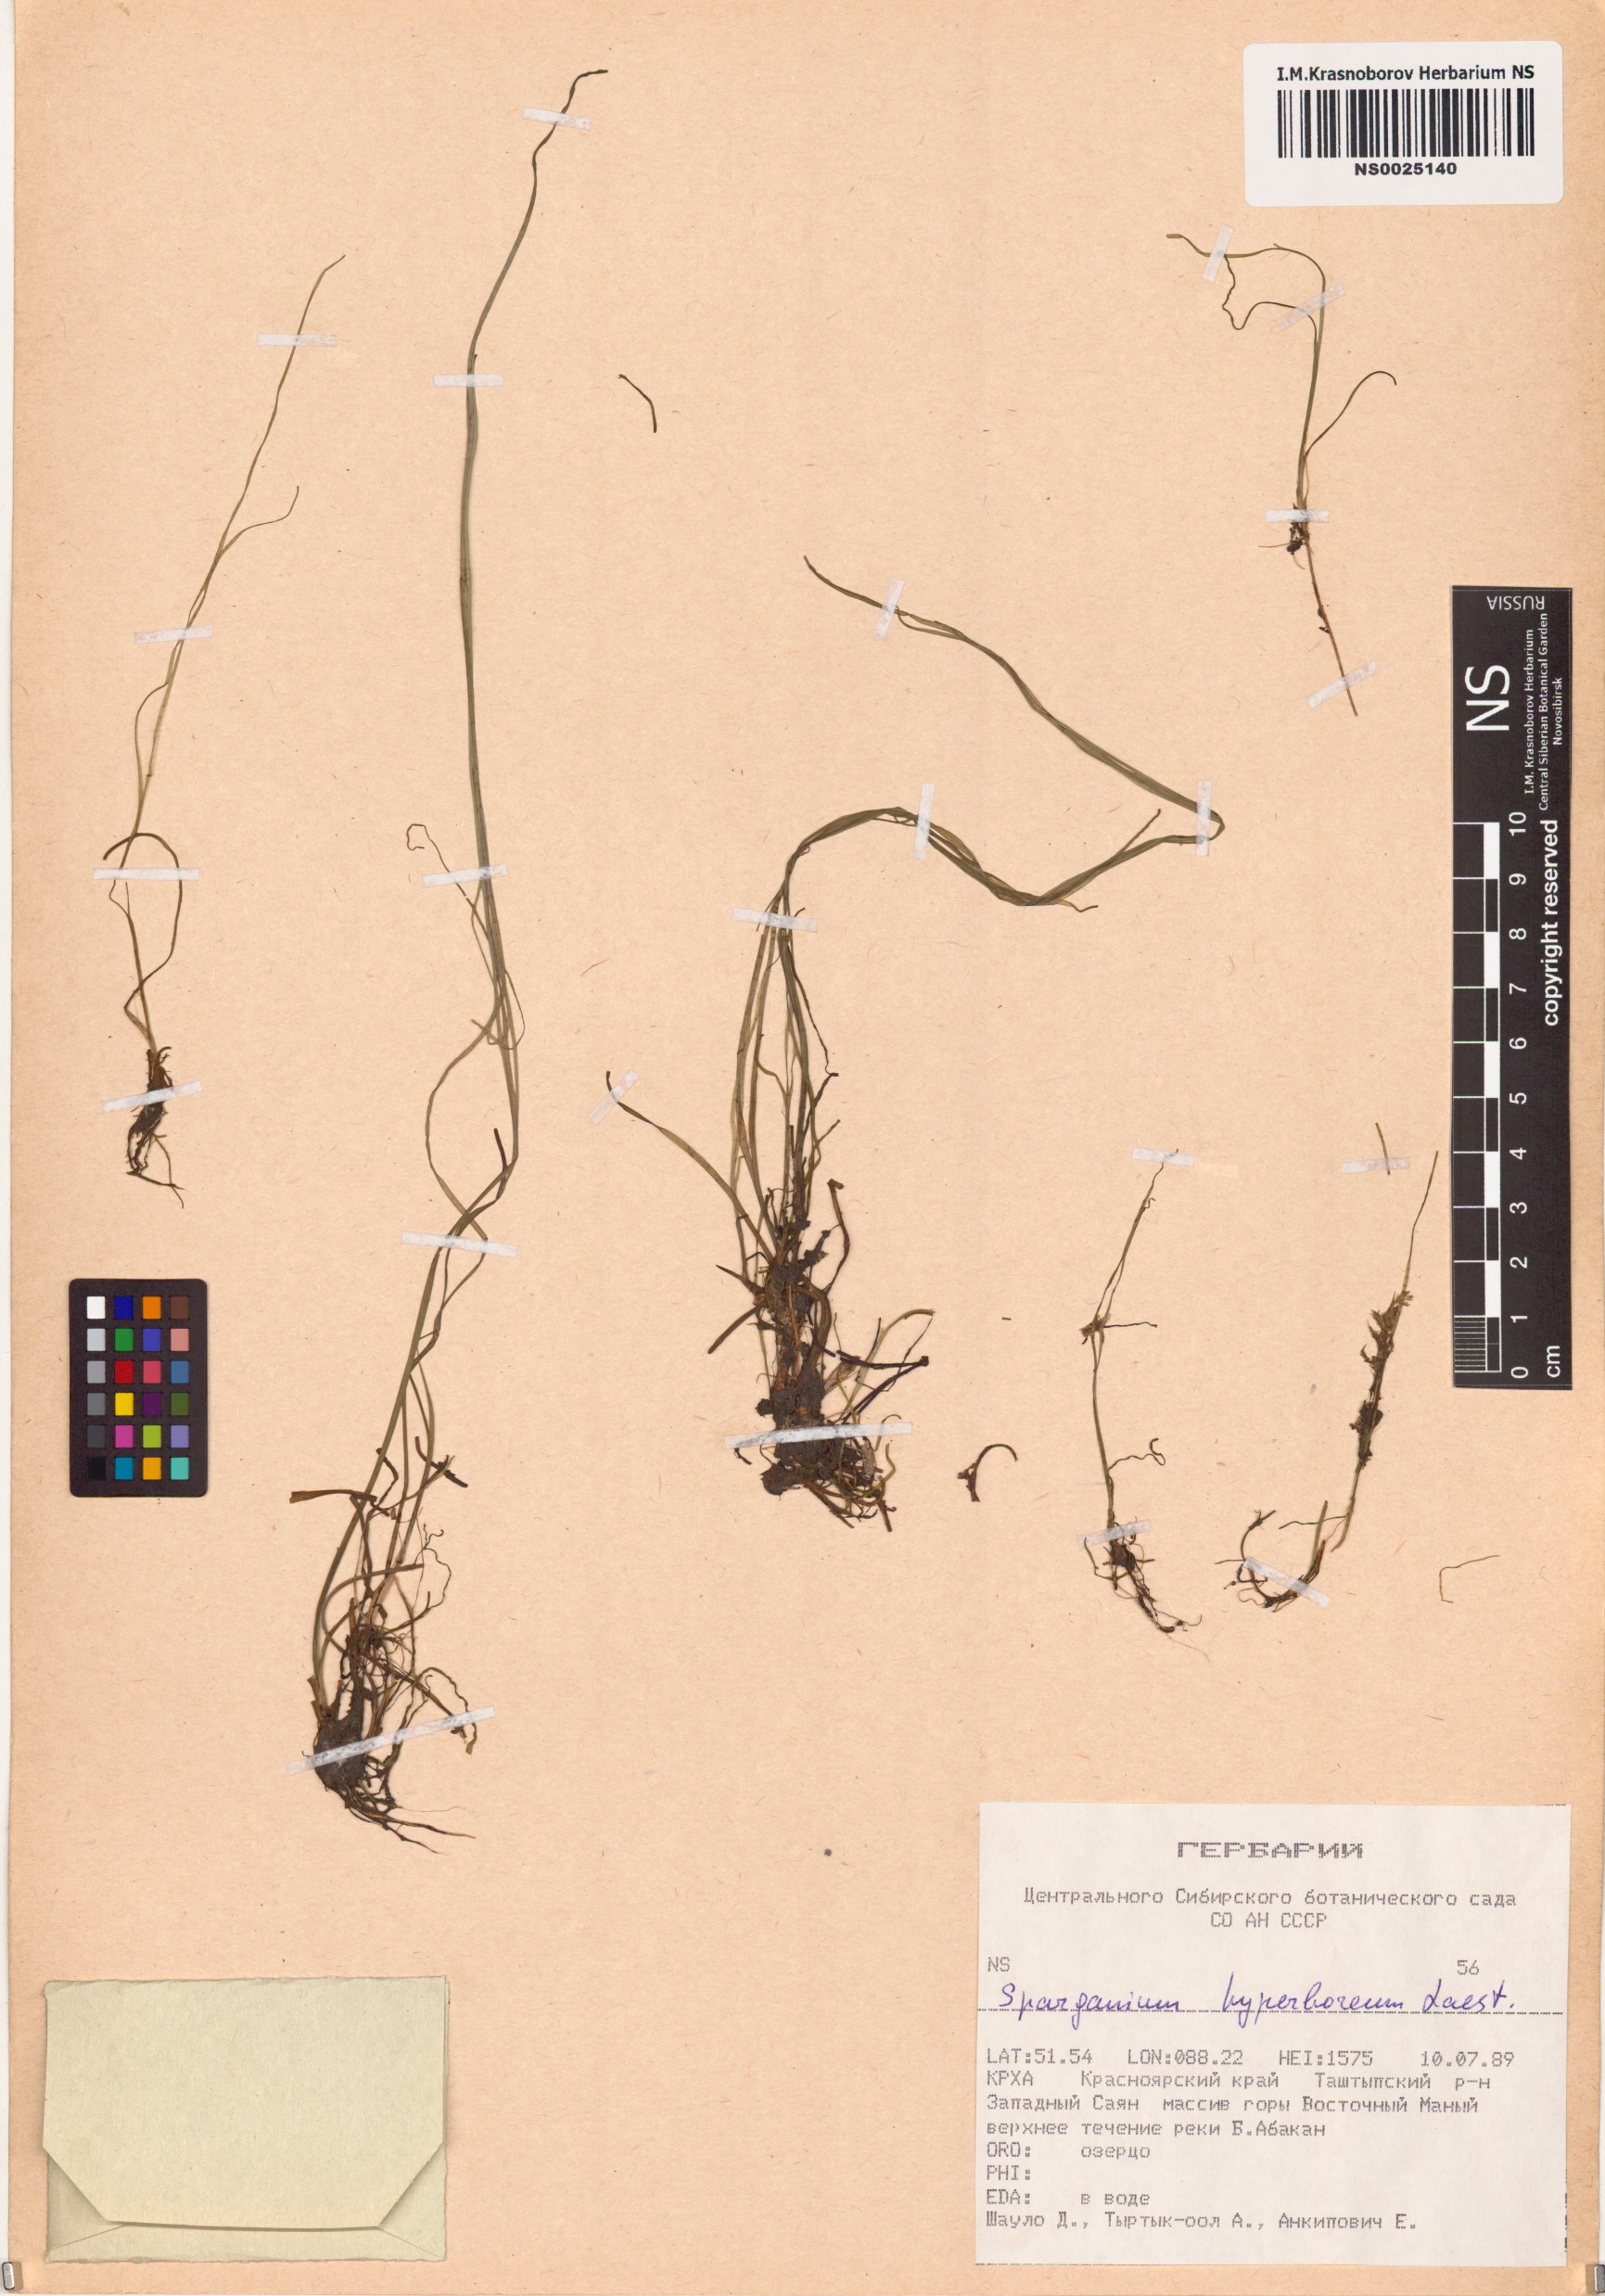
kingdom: Plantae
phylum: Tracheophyta
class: Liliopsida
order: Poales
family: Typhaceae
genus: Sparganium
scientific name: Sparganium hyperboreum
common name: Arctic burreed
